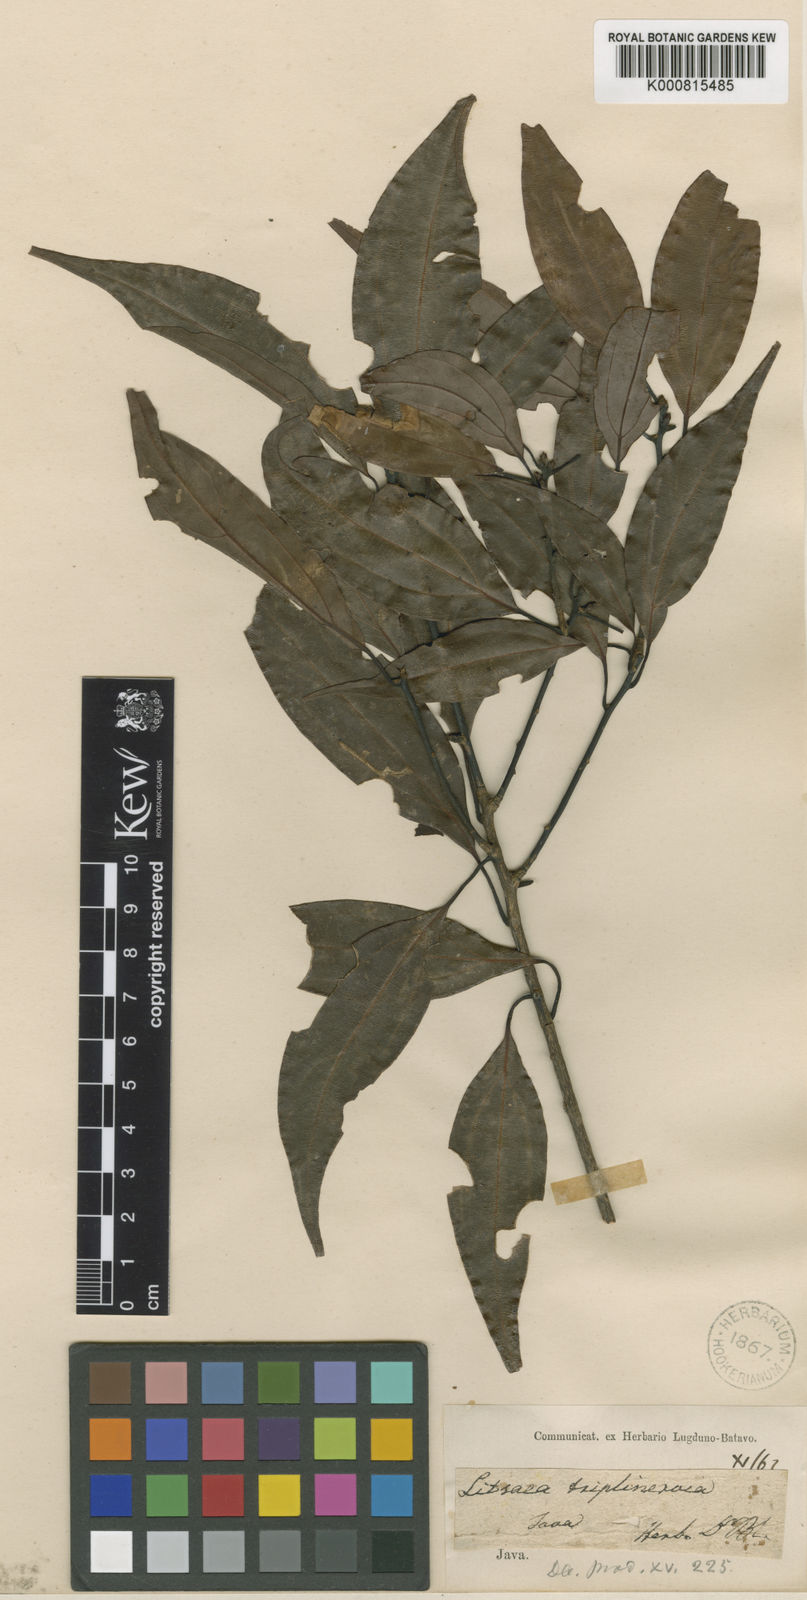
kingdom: Plantae
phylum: Tracheophyta
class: Magnoliopsida
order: Laurales
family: Lauraceae
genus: Neolitsea
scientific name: Neolitsea triplinervia
